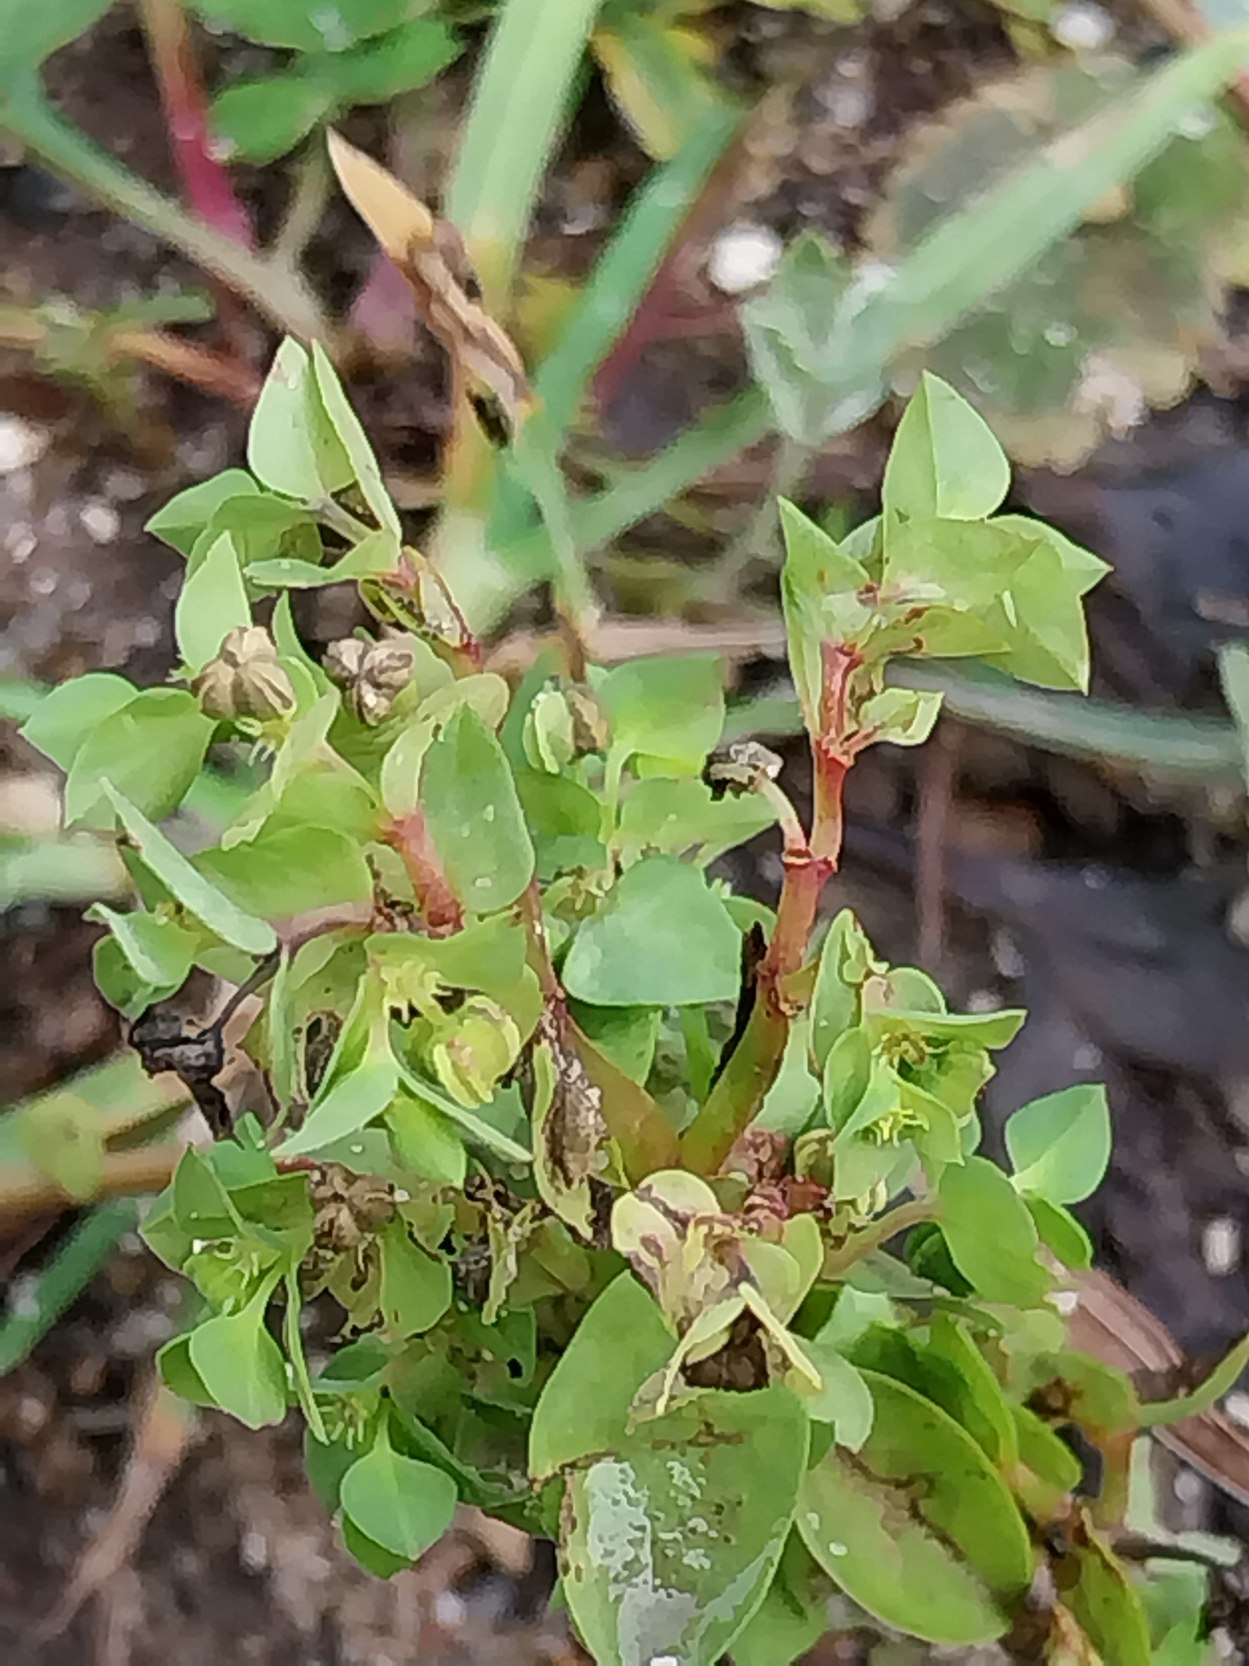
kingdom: Plantae
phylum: Tracheophyta
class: Magnoliopsida
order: Malpighiales
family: Euphorbiaceae
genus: Euphorbia
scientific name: Euphorbia peplus
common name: Gaffel-vortemælk
